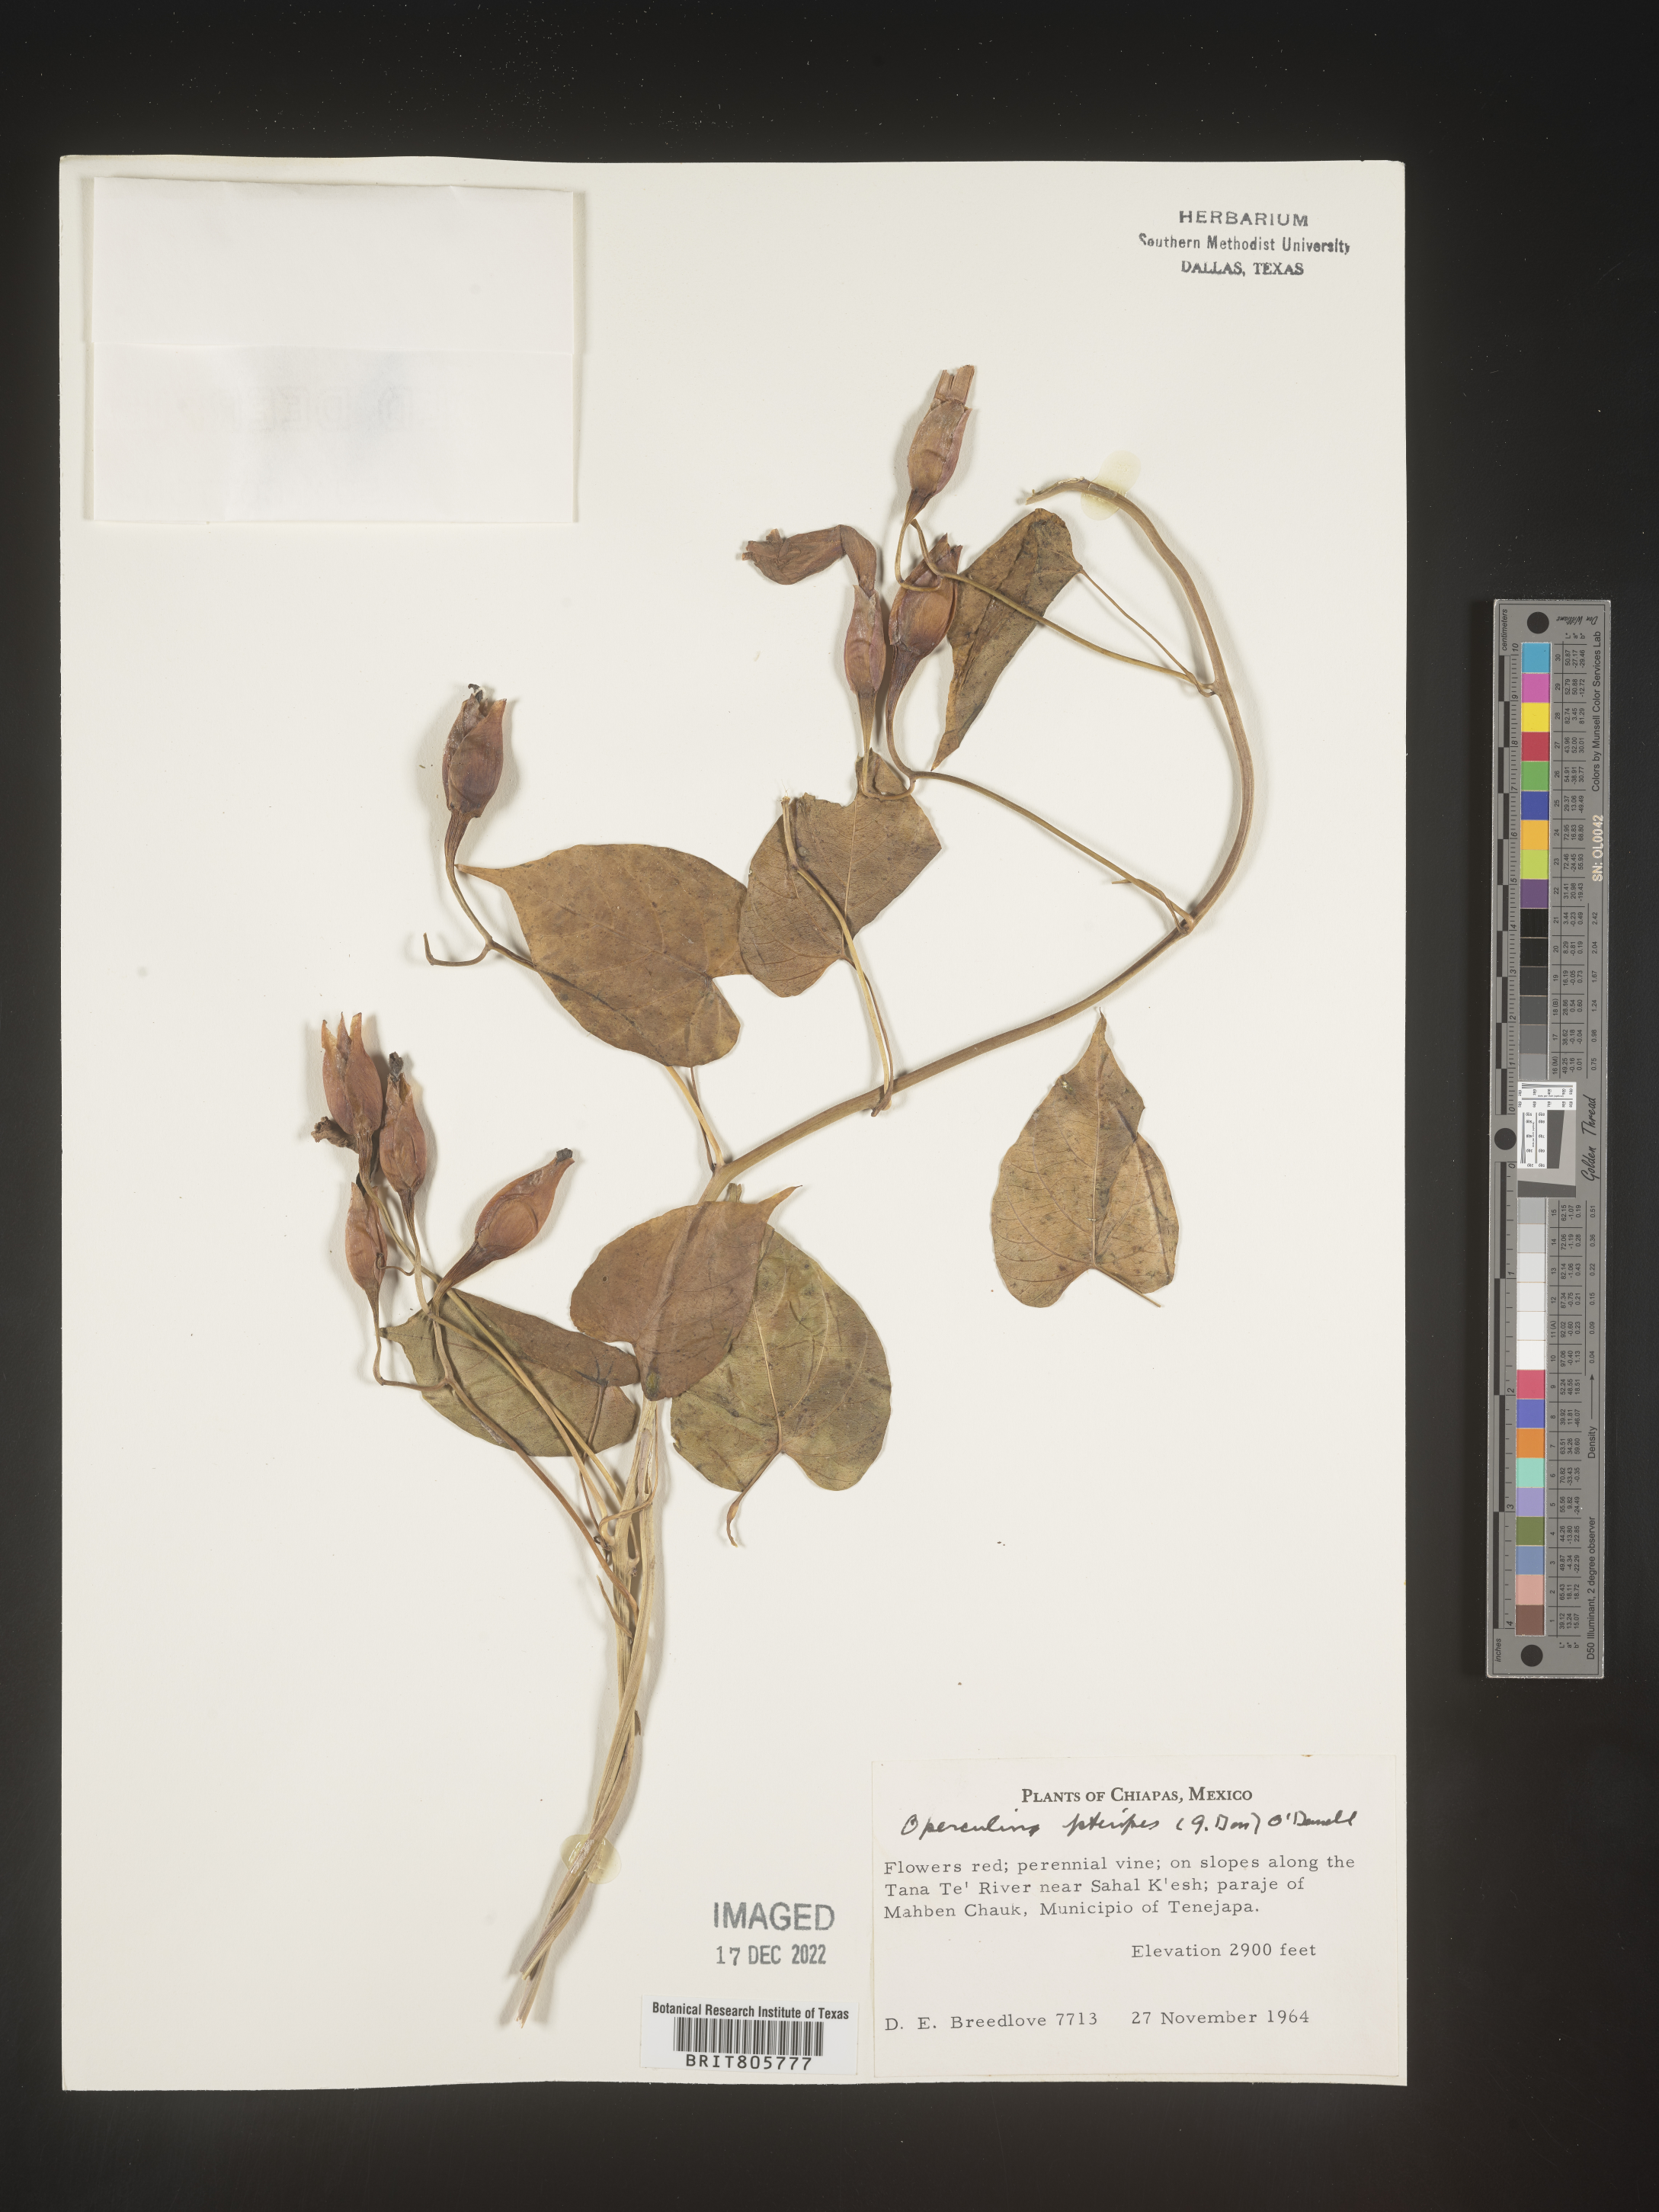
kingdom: Plantae
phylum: Tracheophyta
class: Magnoliopsida
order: Solanales
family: Convolvulaceae
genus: Operculina
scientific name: Operculina
